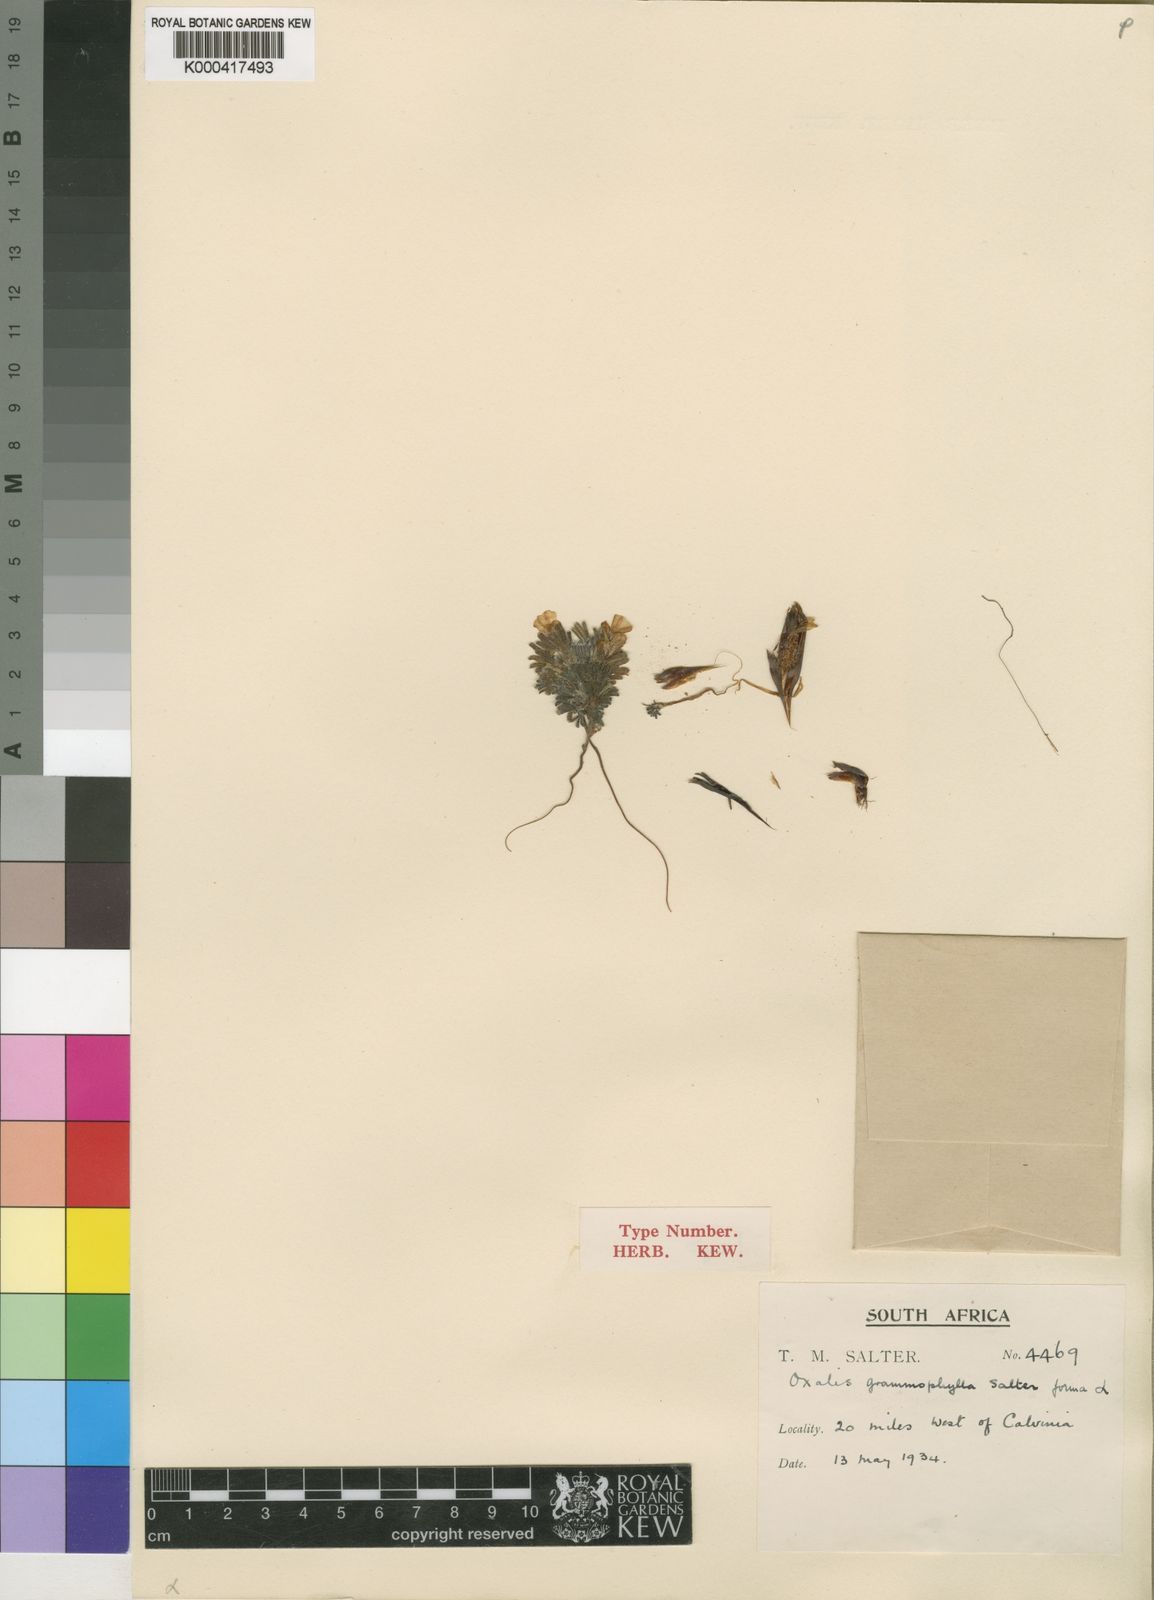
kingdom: Plantae
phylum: Tracheophyta
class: Magnoliopsida
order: Oxalidales
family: Oxalidaceae
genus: Oxalis
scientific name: Oxalis grammophylla
